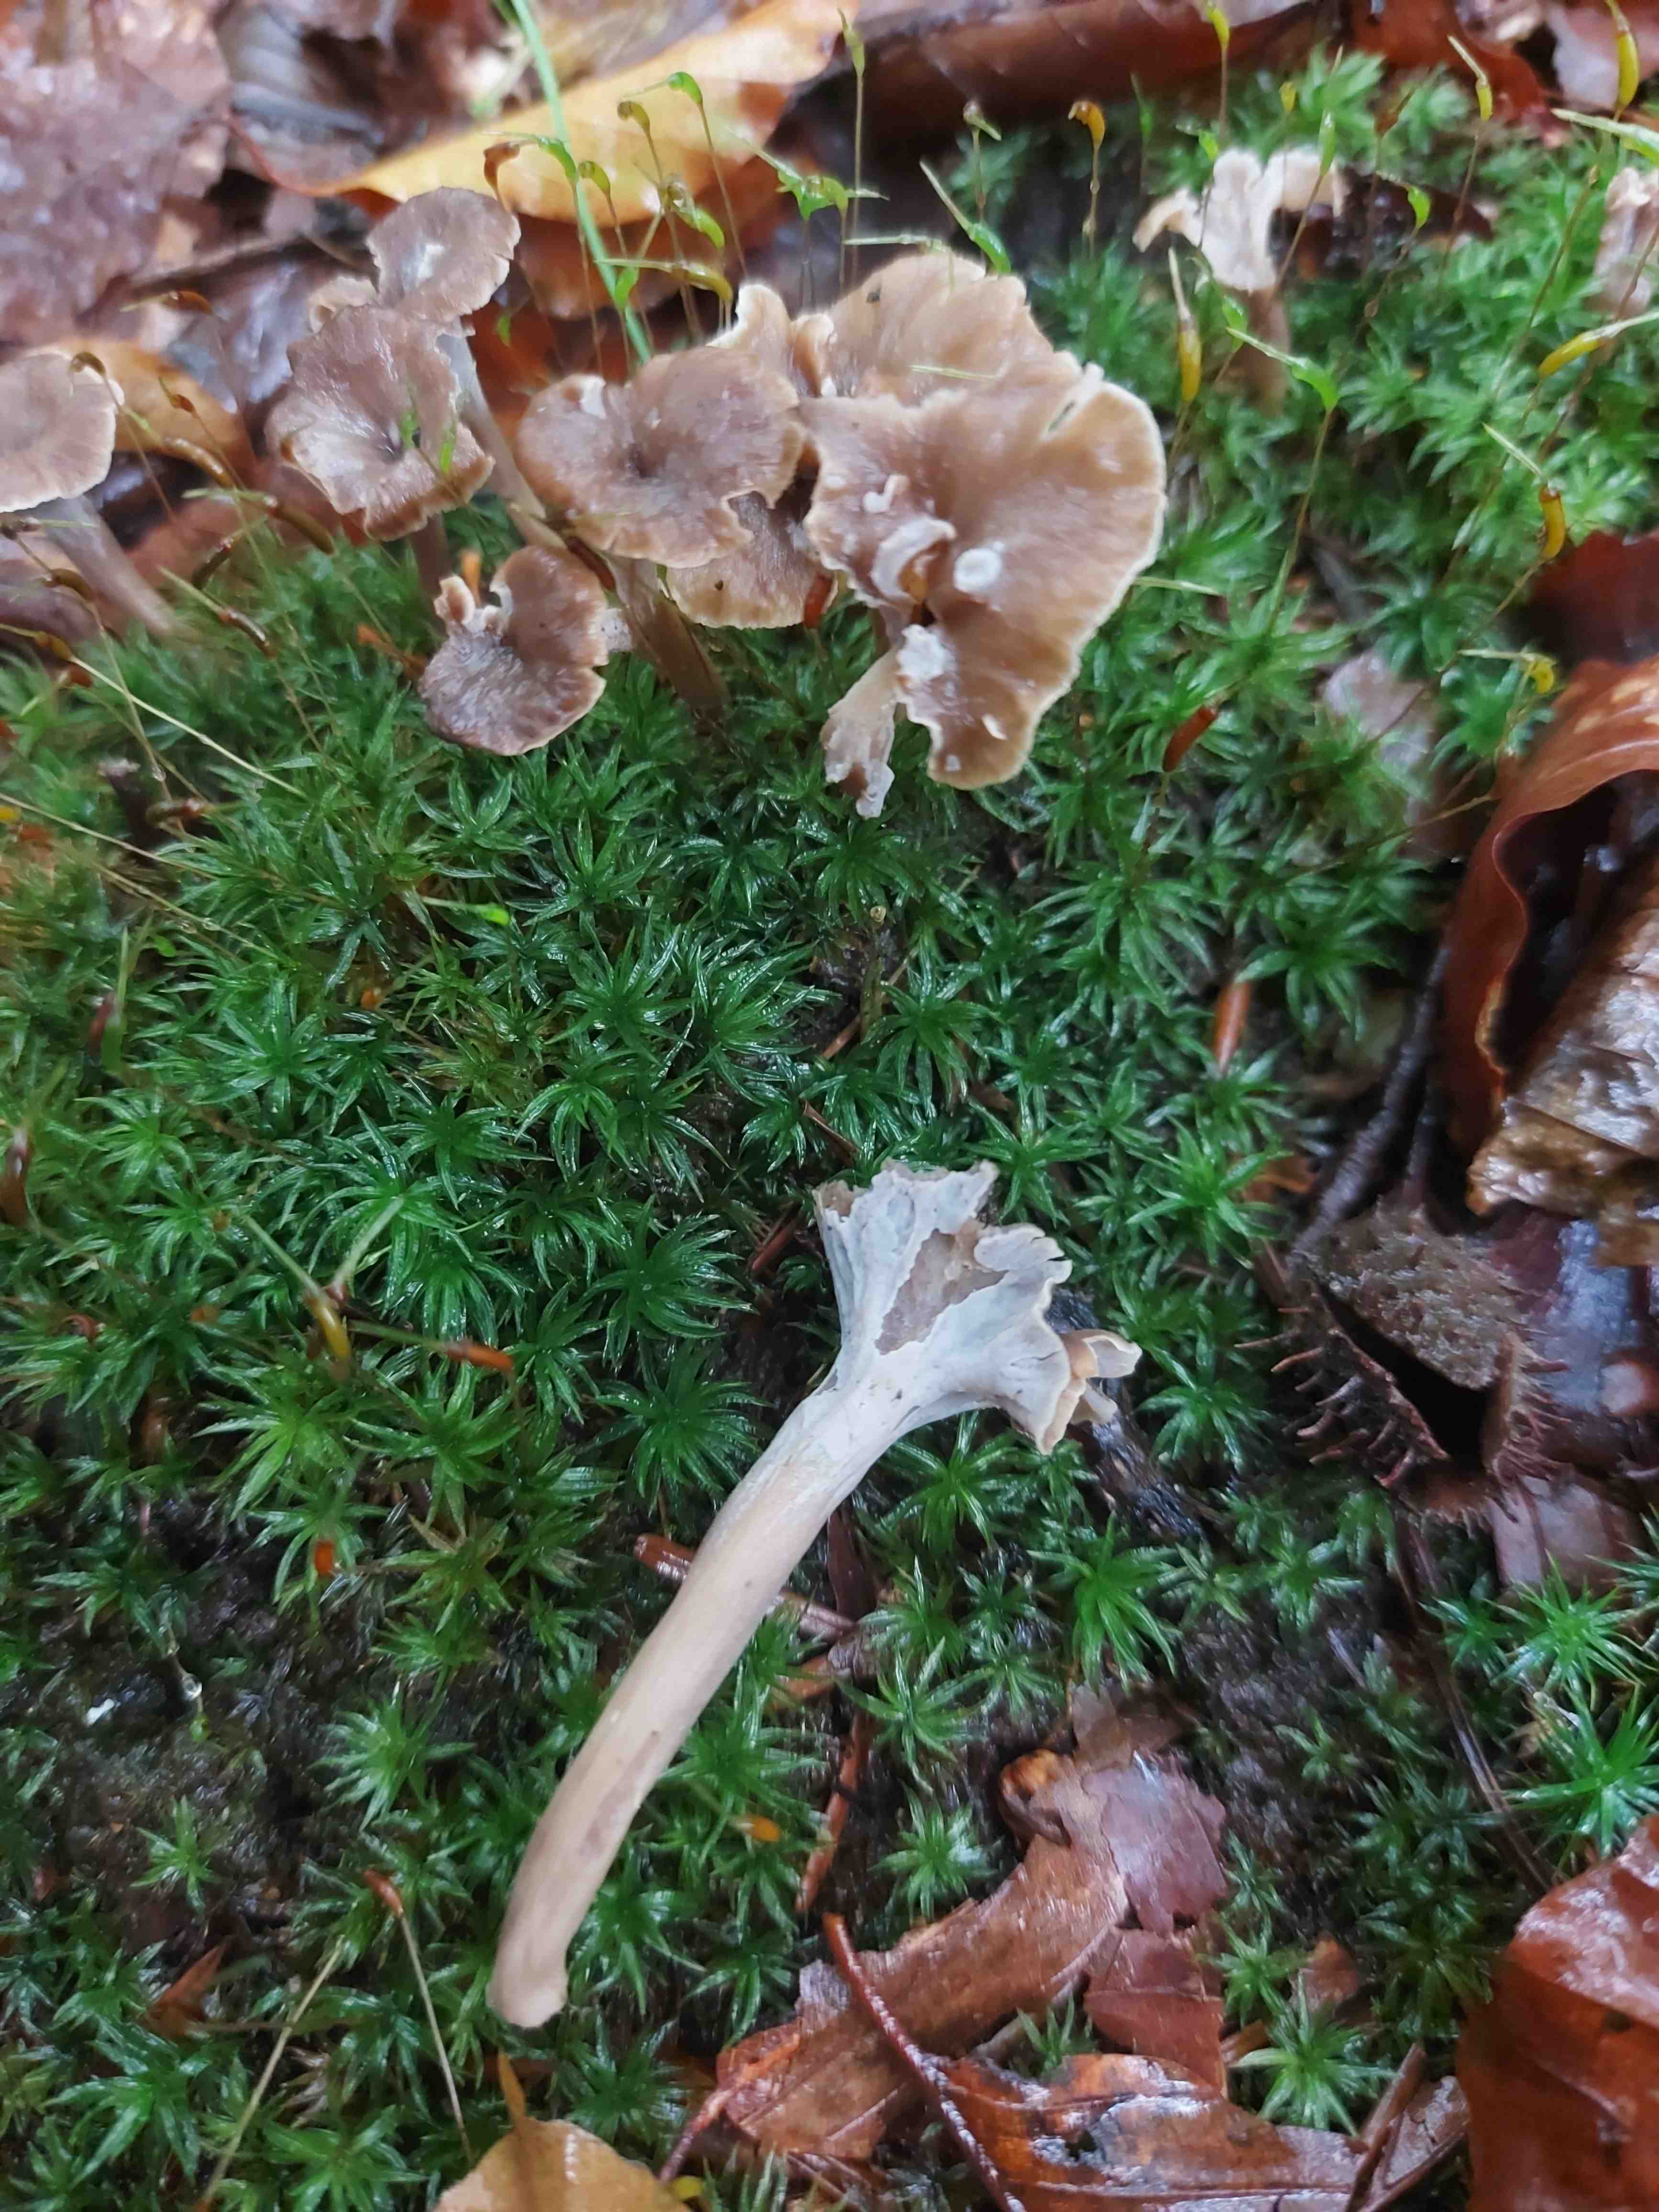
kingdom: Fungi
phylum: Basidiomycota
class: Agaricomycetes
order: Cantharellales
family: Hydnaceae
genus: Craterellus
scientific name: Craterellus undulatus
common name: liden kantarel
